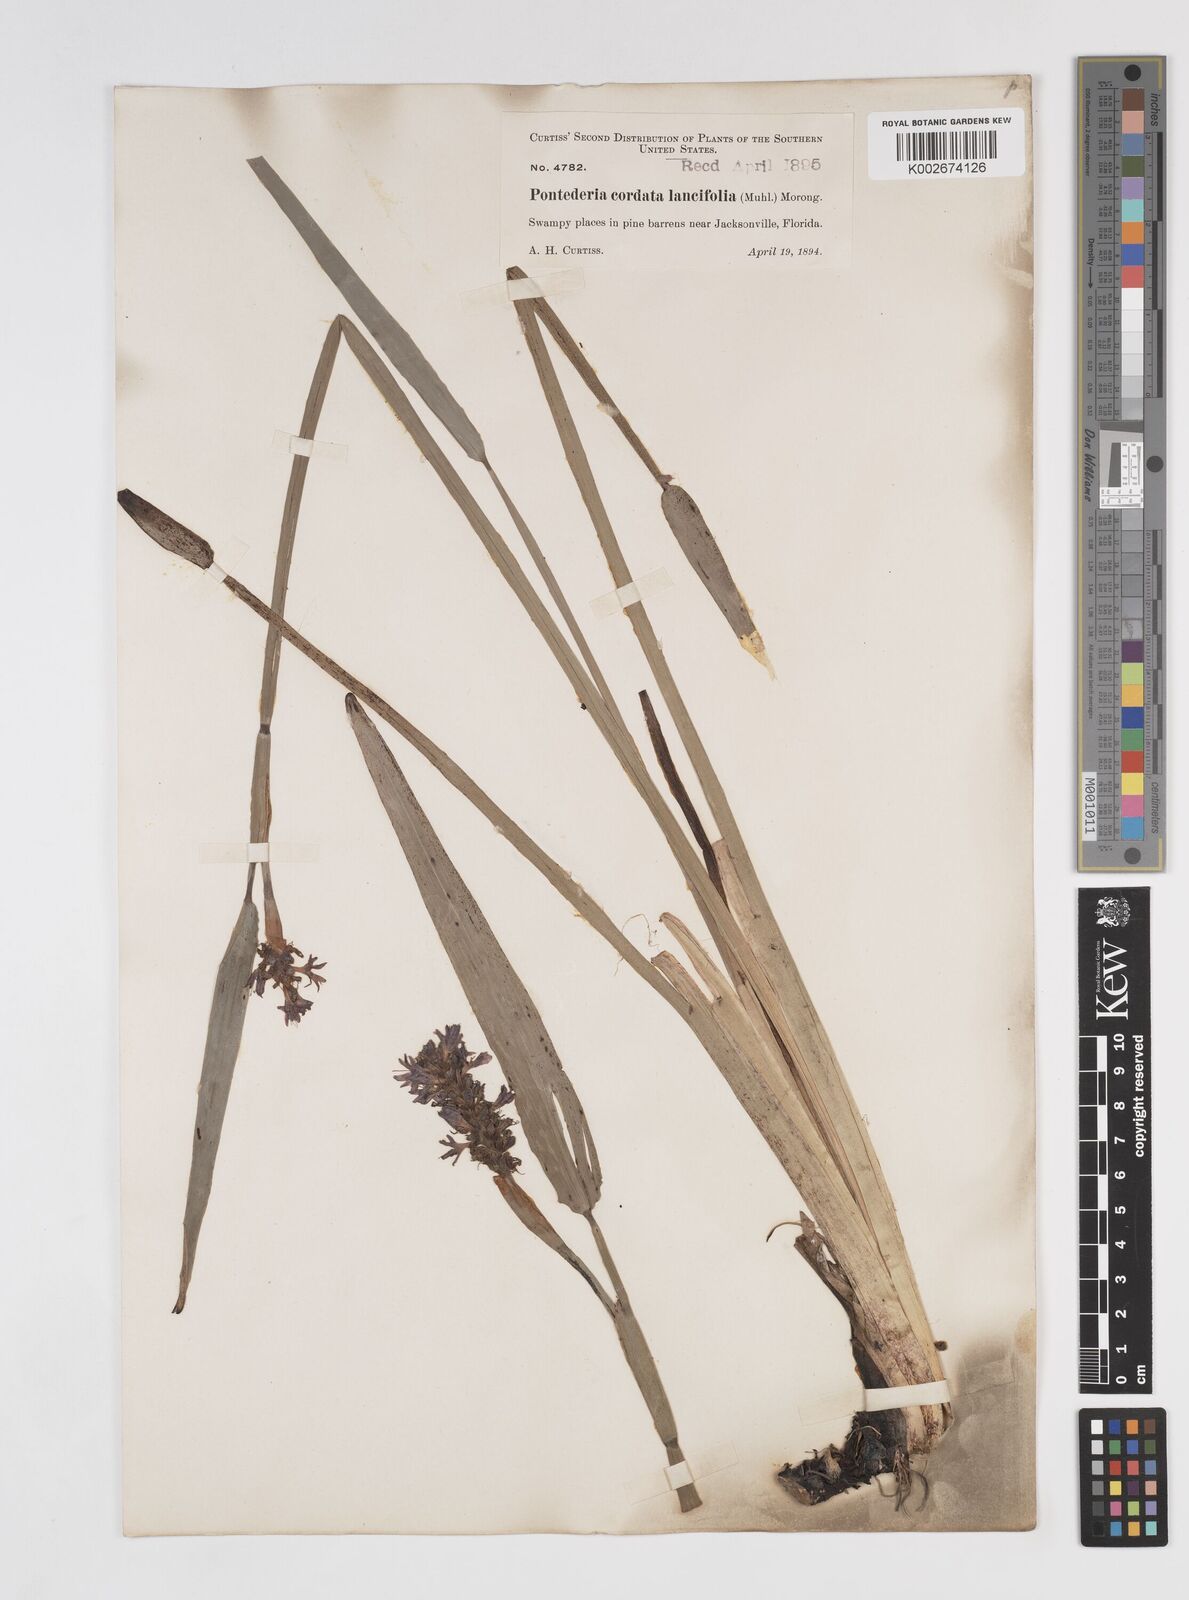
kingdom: Plantae
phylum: Tracheophyta
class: Liliopsida
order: Commelinales
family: Pontederiaceae
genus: Pontederia
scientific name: Pontederia cordata
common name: Pickerelweed
